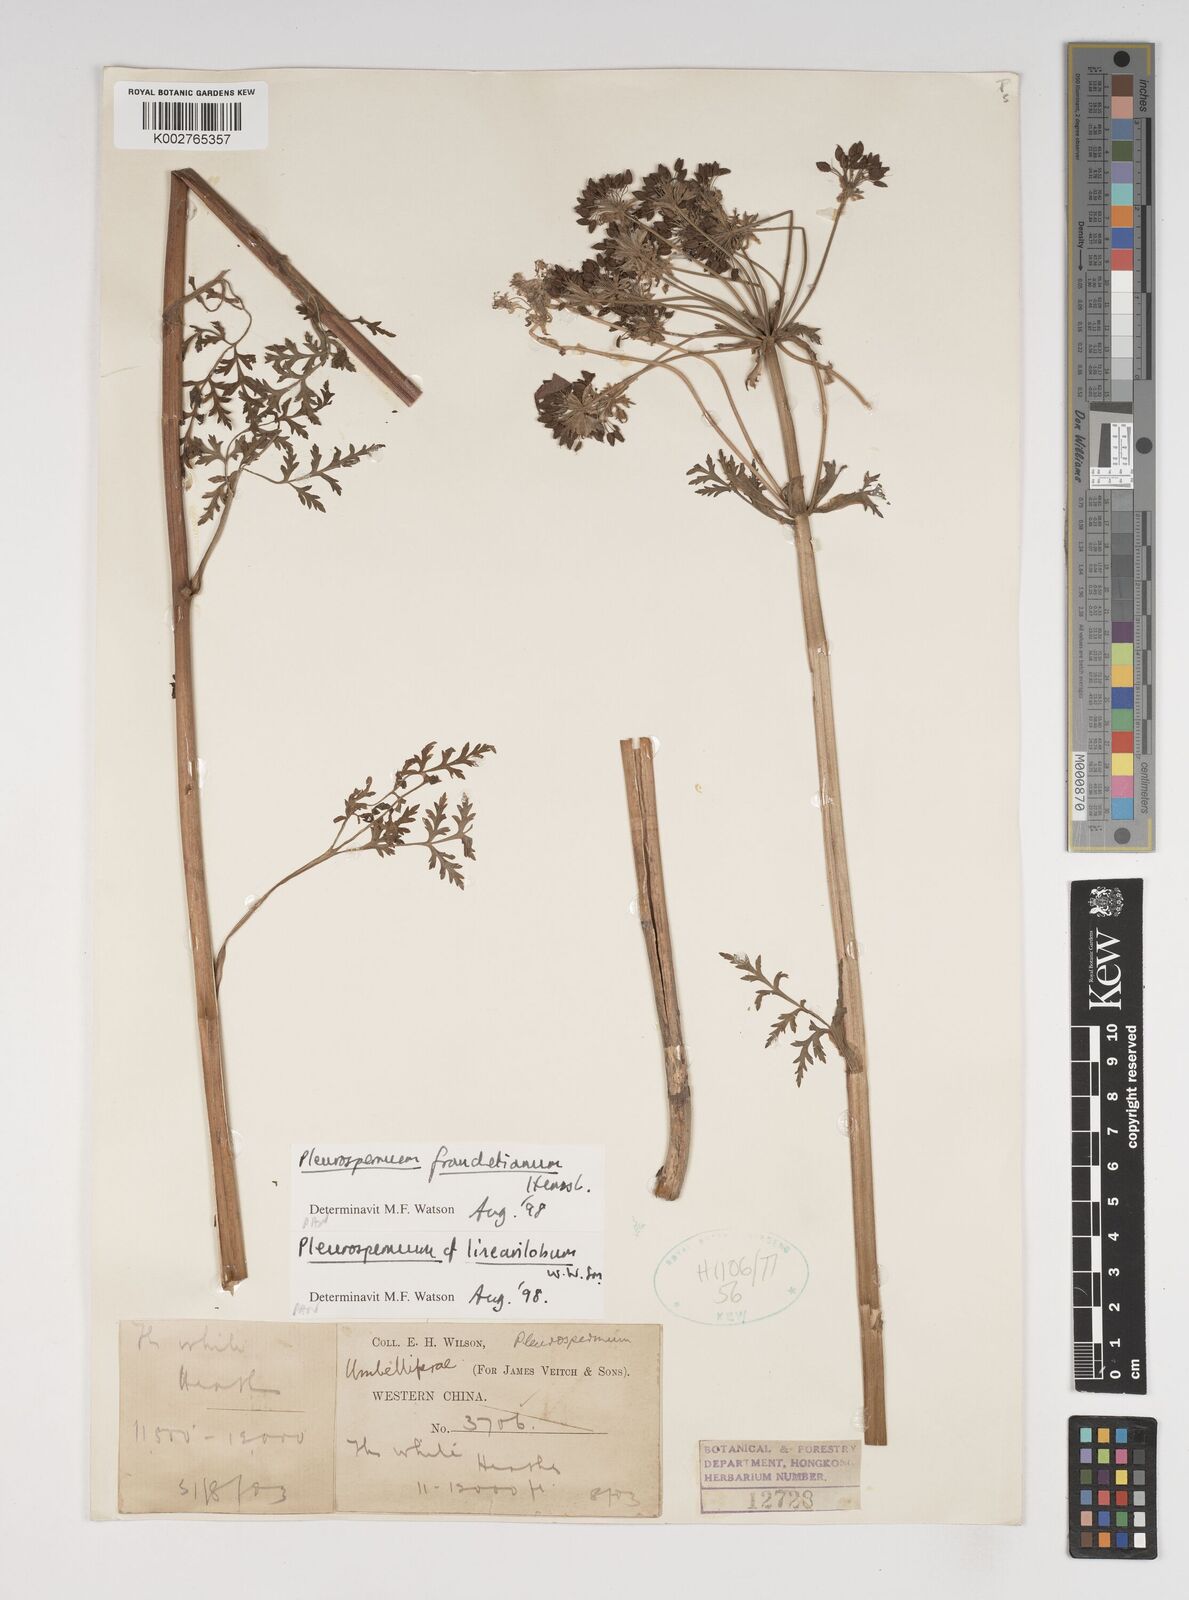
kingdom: Plantae
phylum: Tracheophyta
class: Magnoliopsida
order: Apiales
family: Apiaceae
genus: Hymenidium
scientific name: Hymenidium
